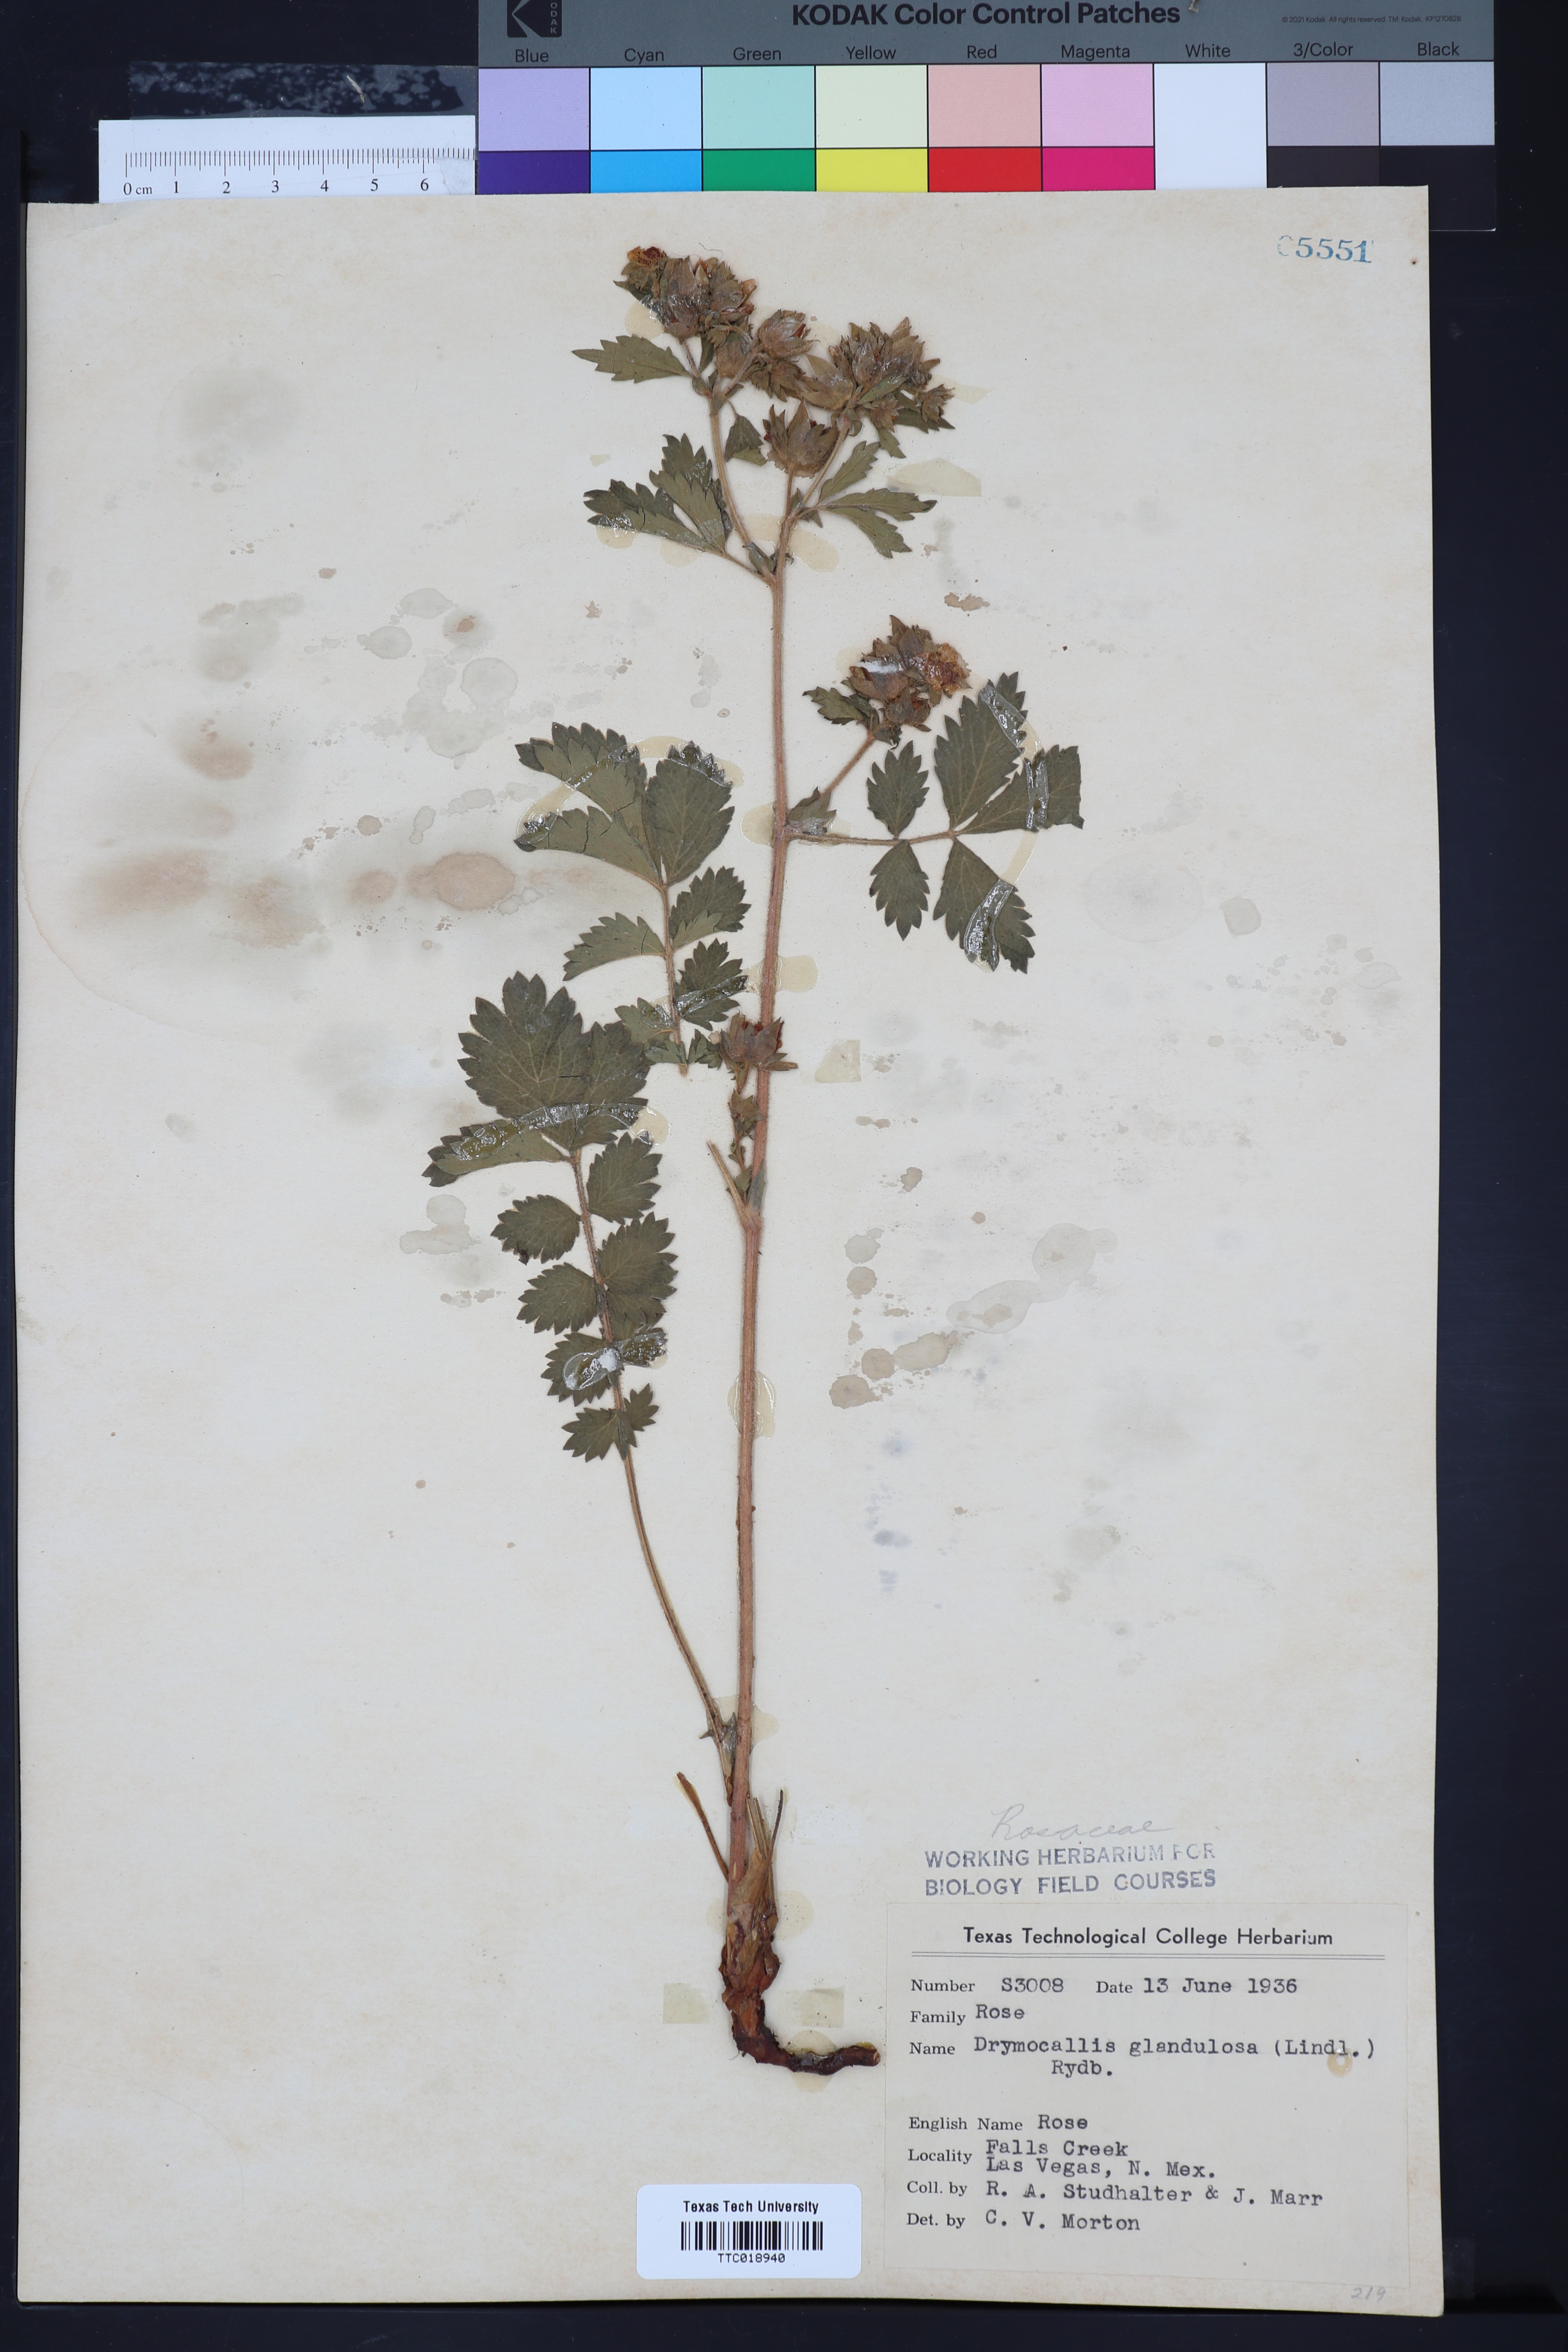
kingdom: Plantae
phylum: Tracheophyta
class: Magnoliopsida
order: Rosales
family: Rosaceae
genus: Drymocallis
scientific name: Drymocallis glandulosa
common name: Sticky cinquefoil
